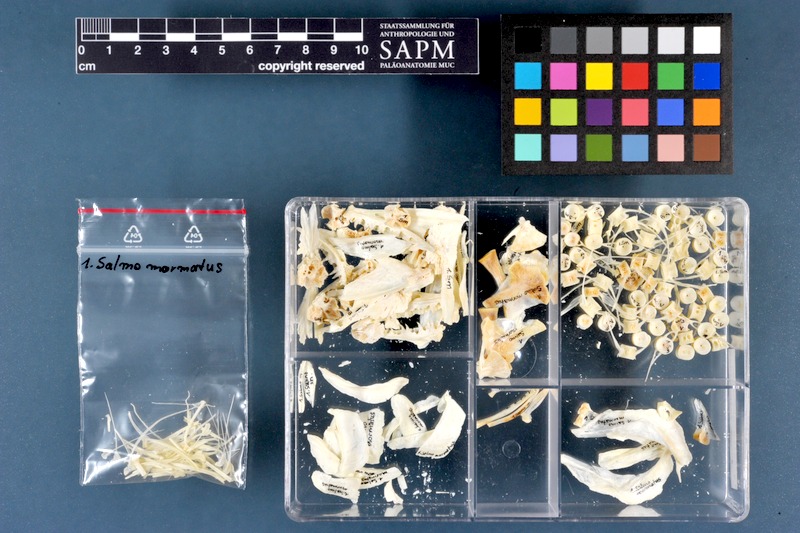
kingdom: Animalia
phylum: Chordata
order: Salmoniformes
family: Salmonidae
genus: Salmo
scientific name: Salmo marmoratus
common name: Marble trout
